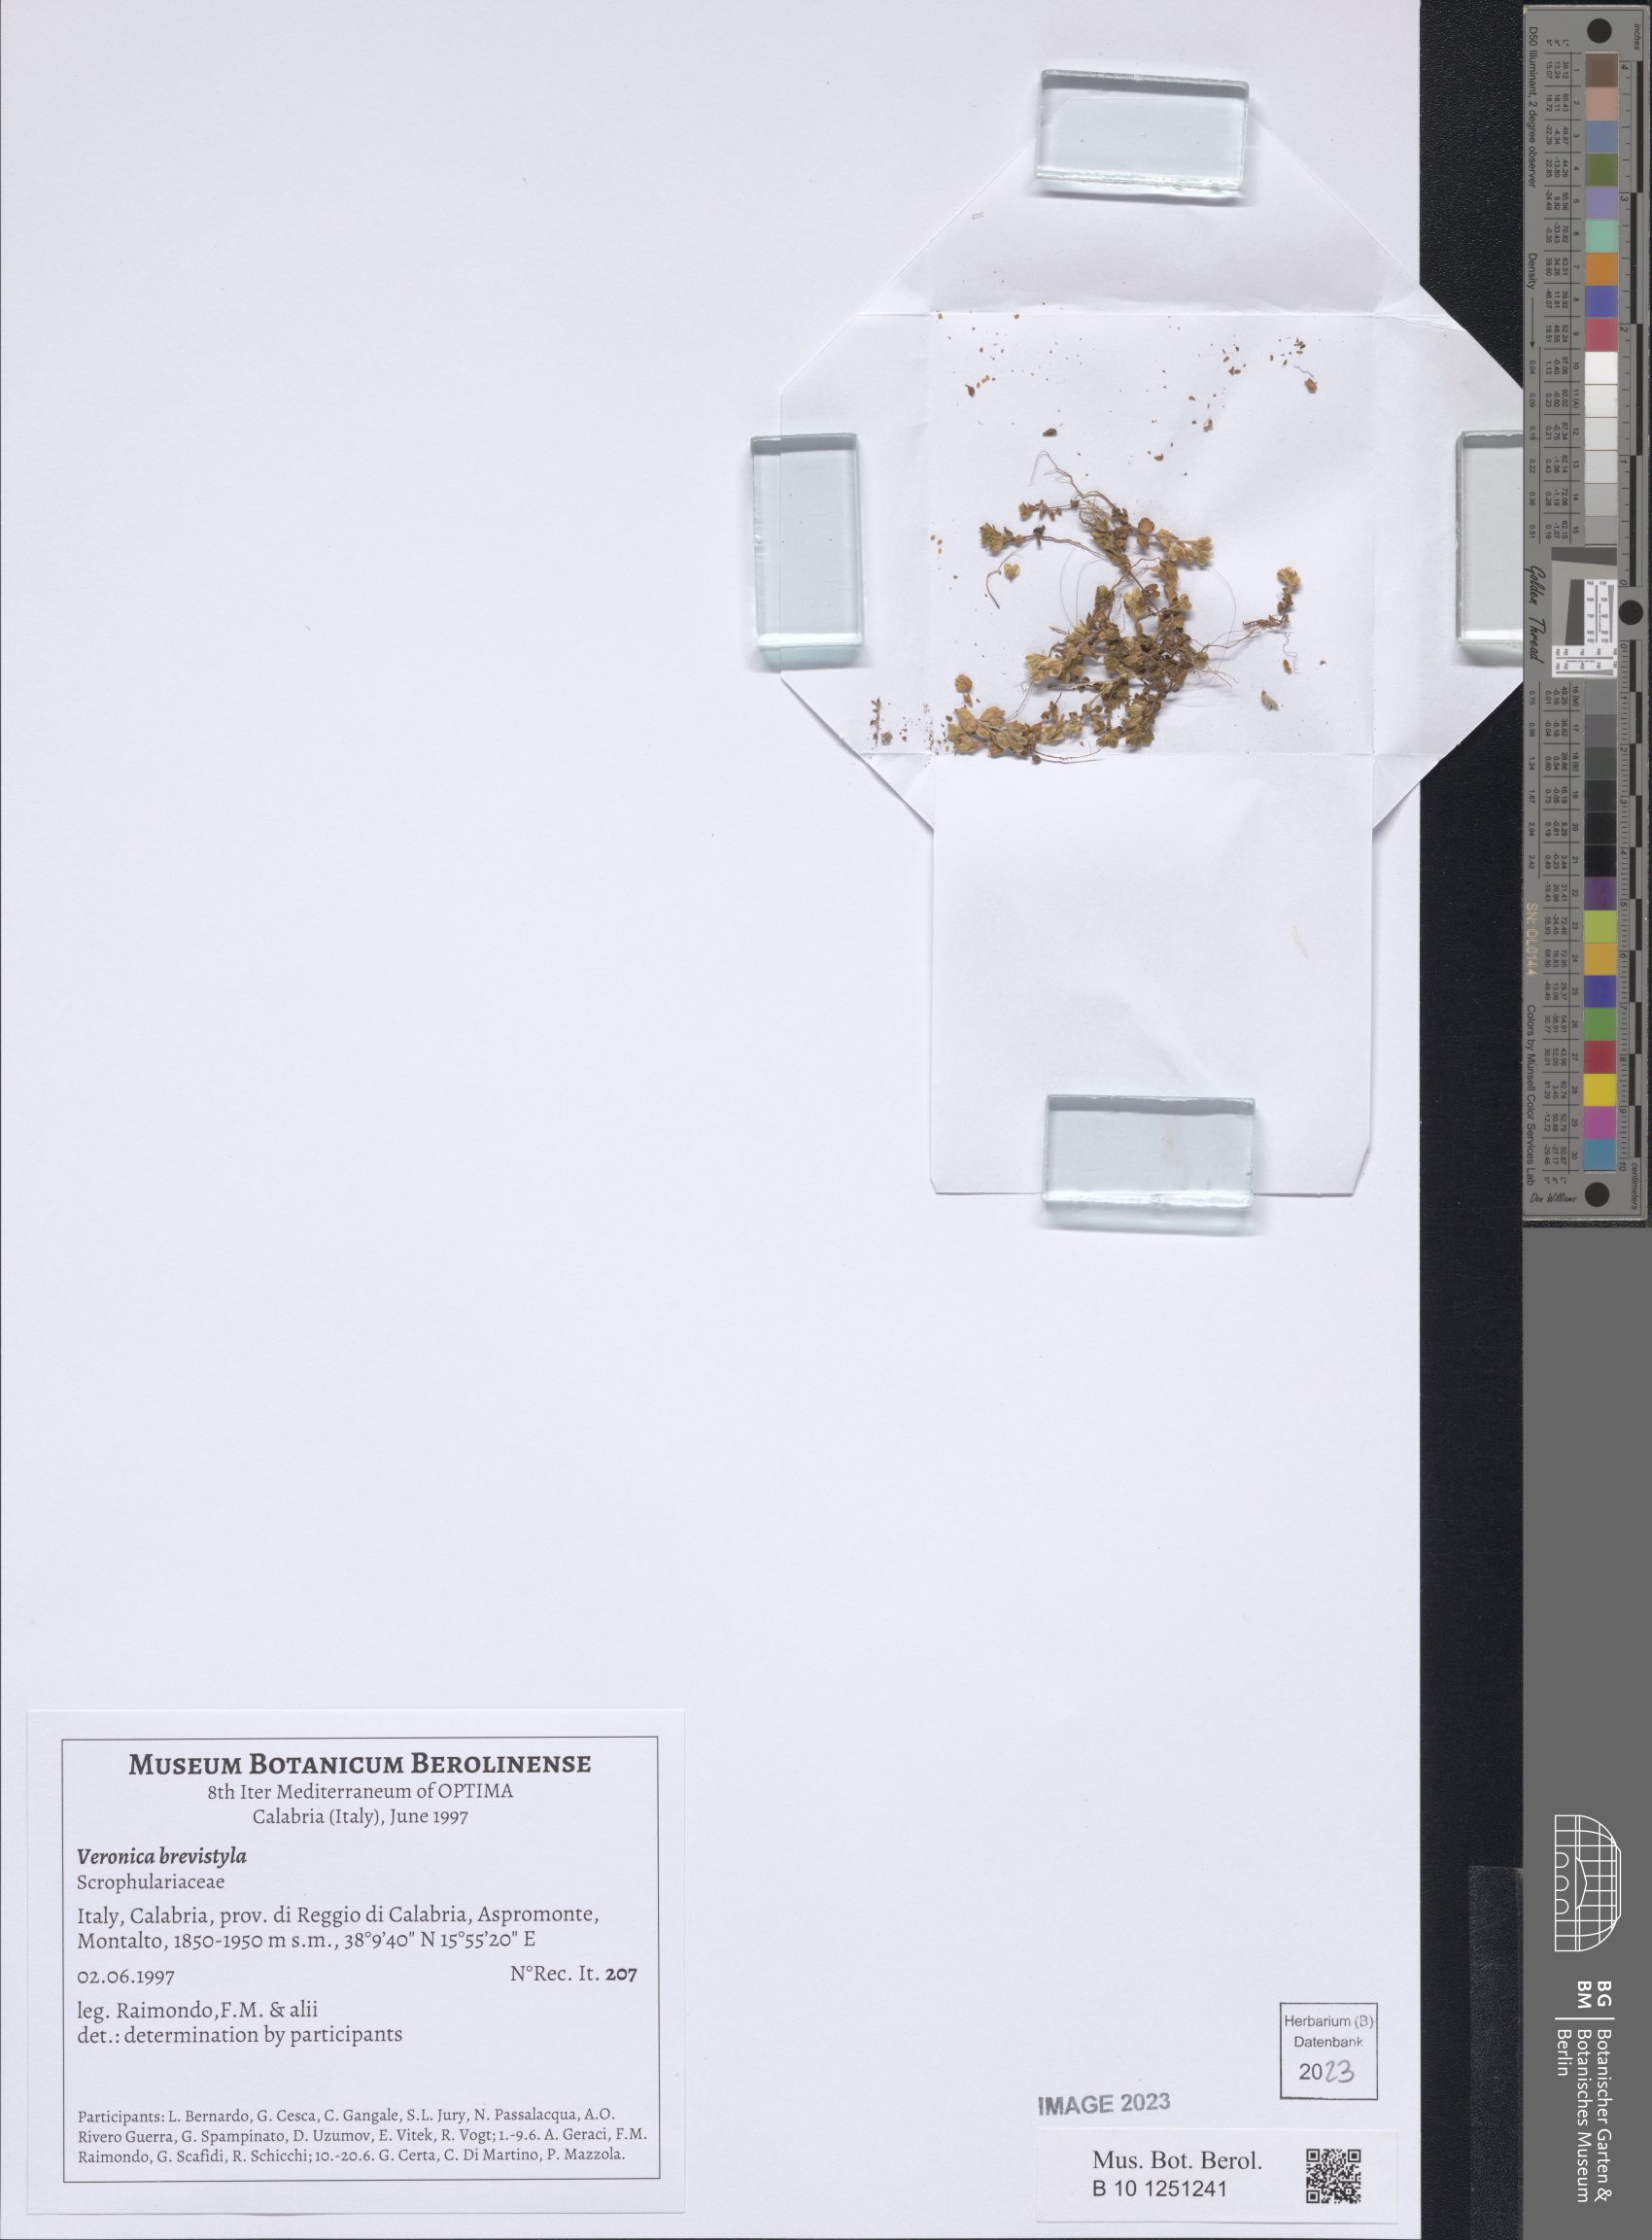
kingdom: Plantae
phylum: Tracheophyta
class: Magnoliopsida
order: Lamiales
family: Plantaginaceae
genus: Veronica
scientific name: Veronica verna
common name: Spring speedwell
